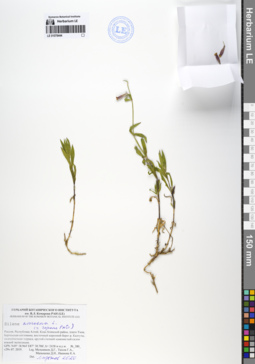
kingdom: Plantae
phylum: Tracheophyta
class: Magnoliopsida
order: Caryophyllales
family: Caryophyllaceae
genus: Silene
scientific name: Silene amoena
